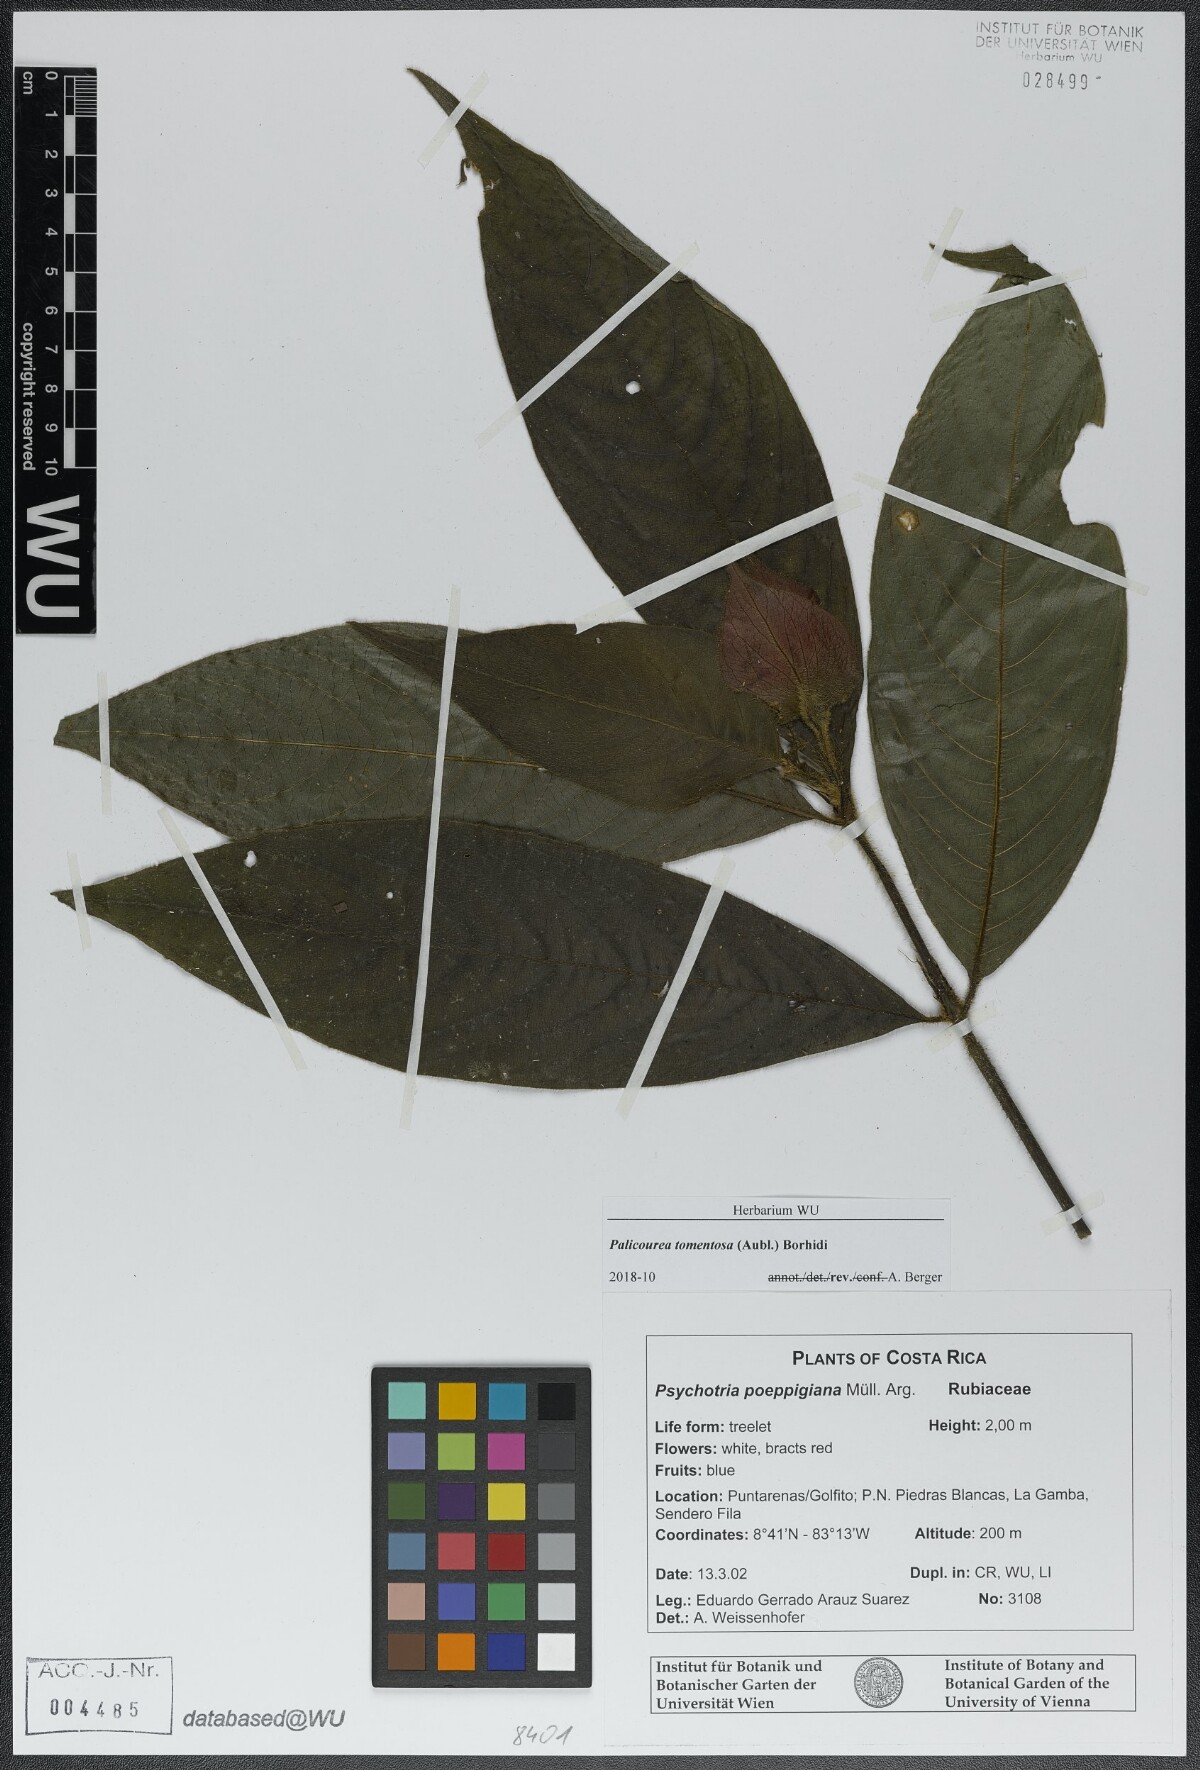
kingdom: Plantae
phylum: Tracheophyta
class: Magnoliopsida
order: Gentianales
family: Rubiaceae
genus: Palicourea
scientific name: Palicourea tomentosa
